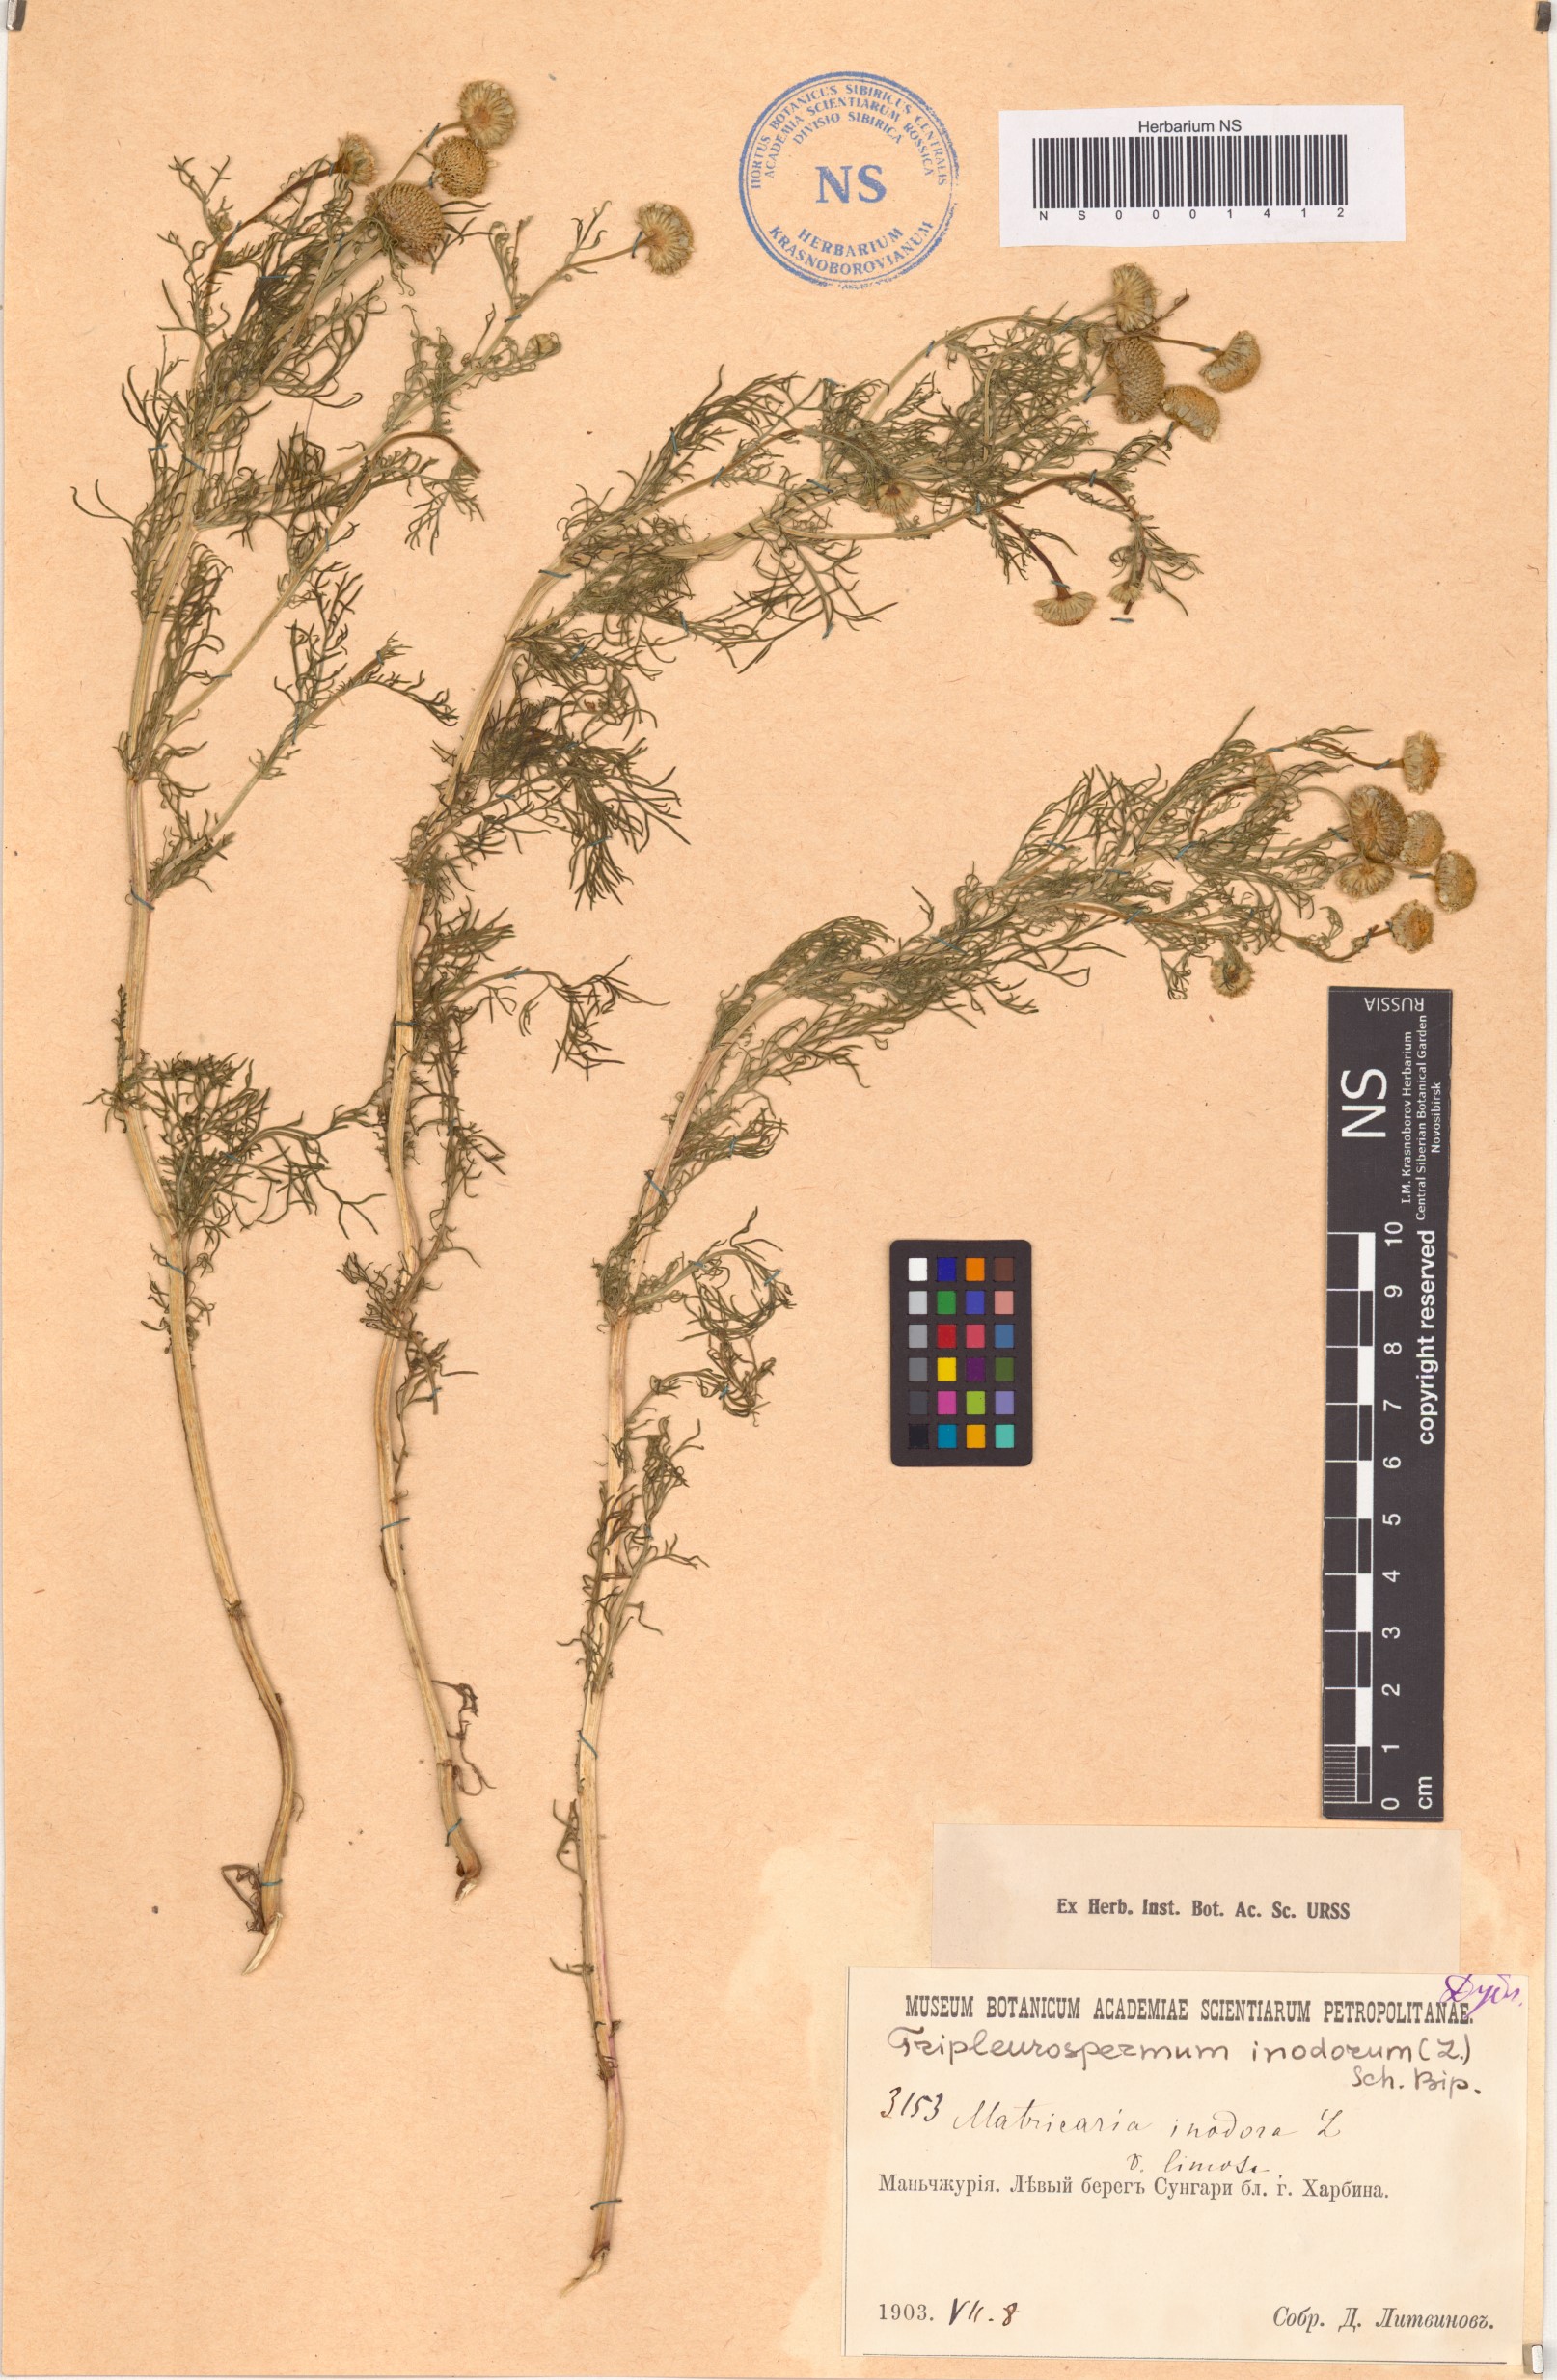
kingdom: Plantae
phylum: Tracheophyta
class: Magnoliopsida
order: Asterales
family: Asteraceae
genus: Tripleurospermum
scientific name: Tripleurospermum inodorum
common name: Scentless mayweed
